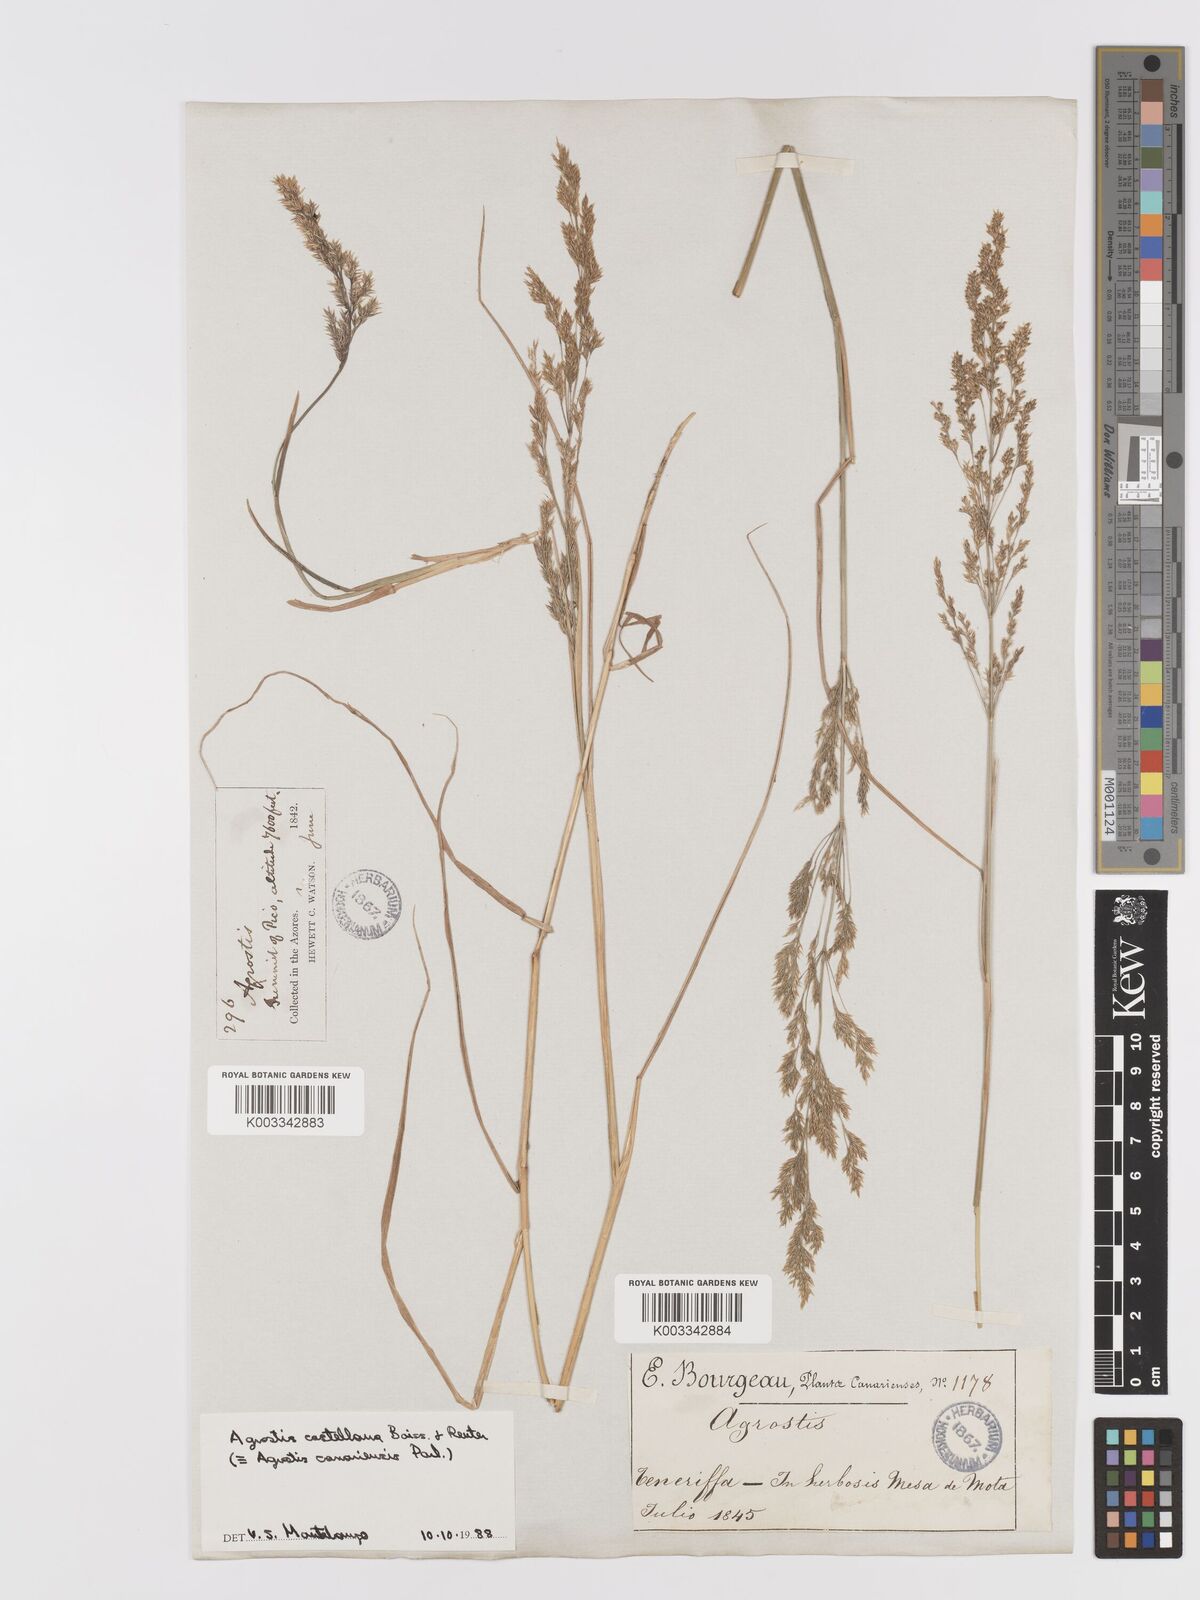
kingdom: Plantae
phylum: Tracheophyta
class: Liliopsida
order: Poales
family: Poaceae
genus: Agrostis
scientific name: Agrostis castellana
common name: Highland bent
